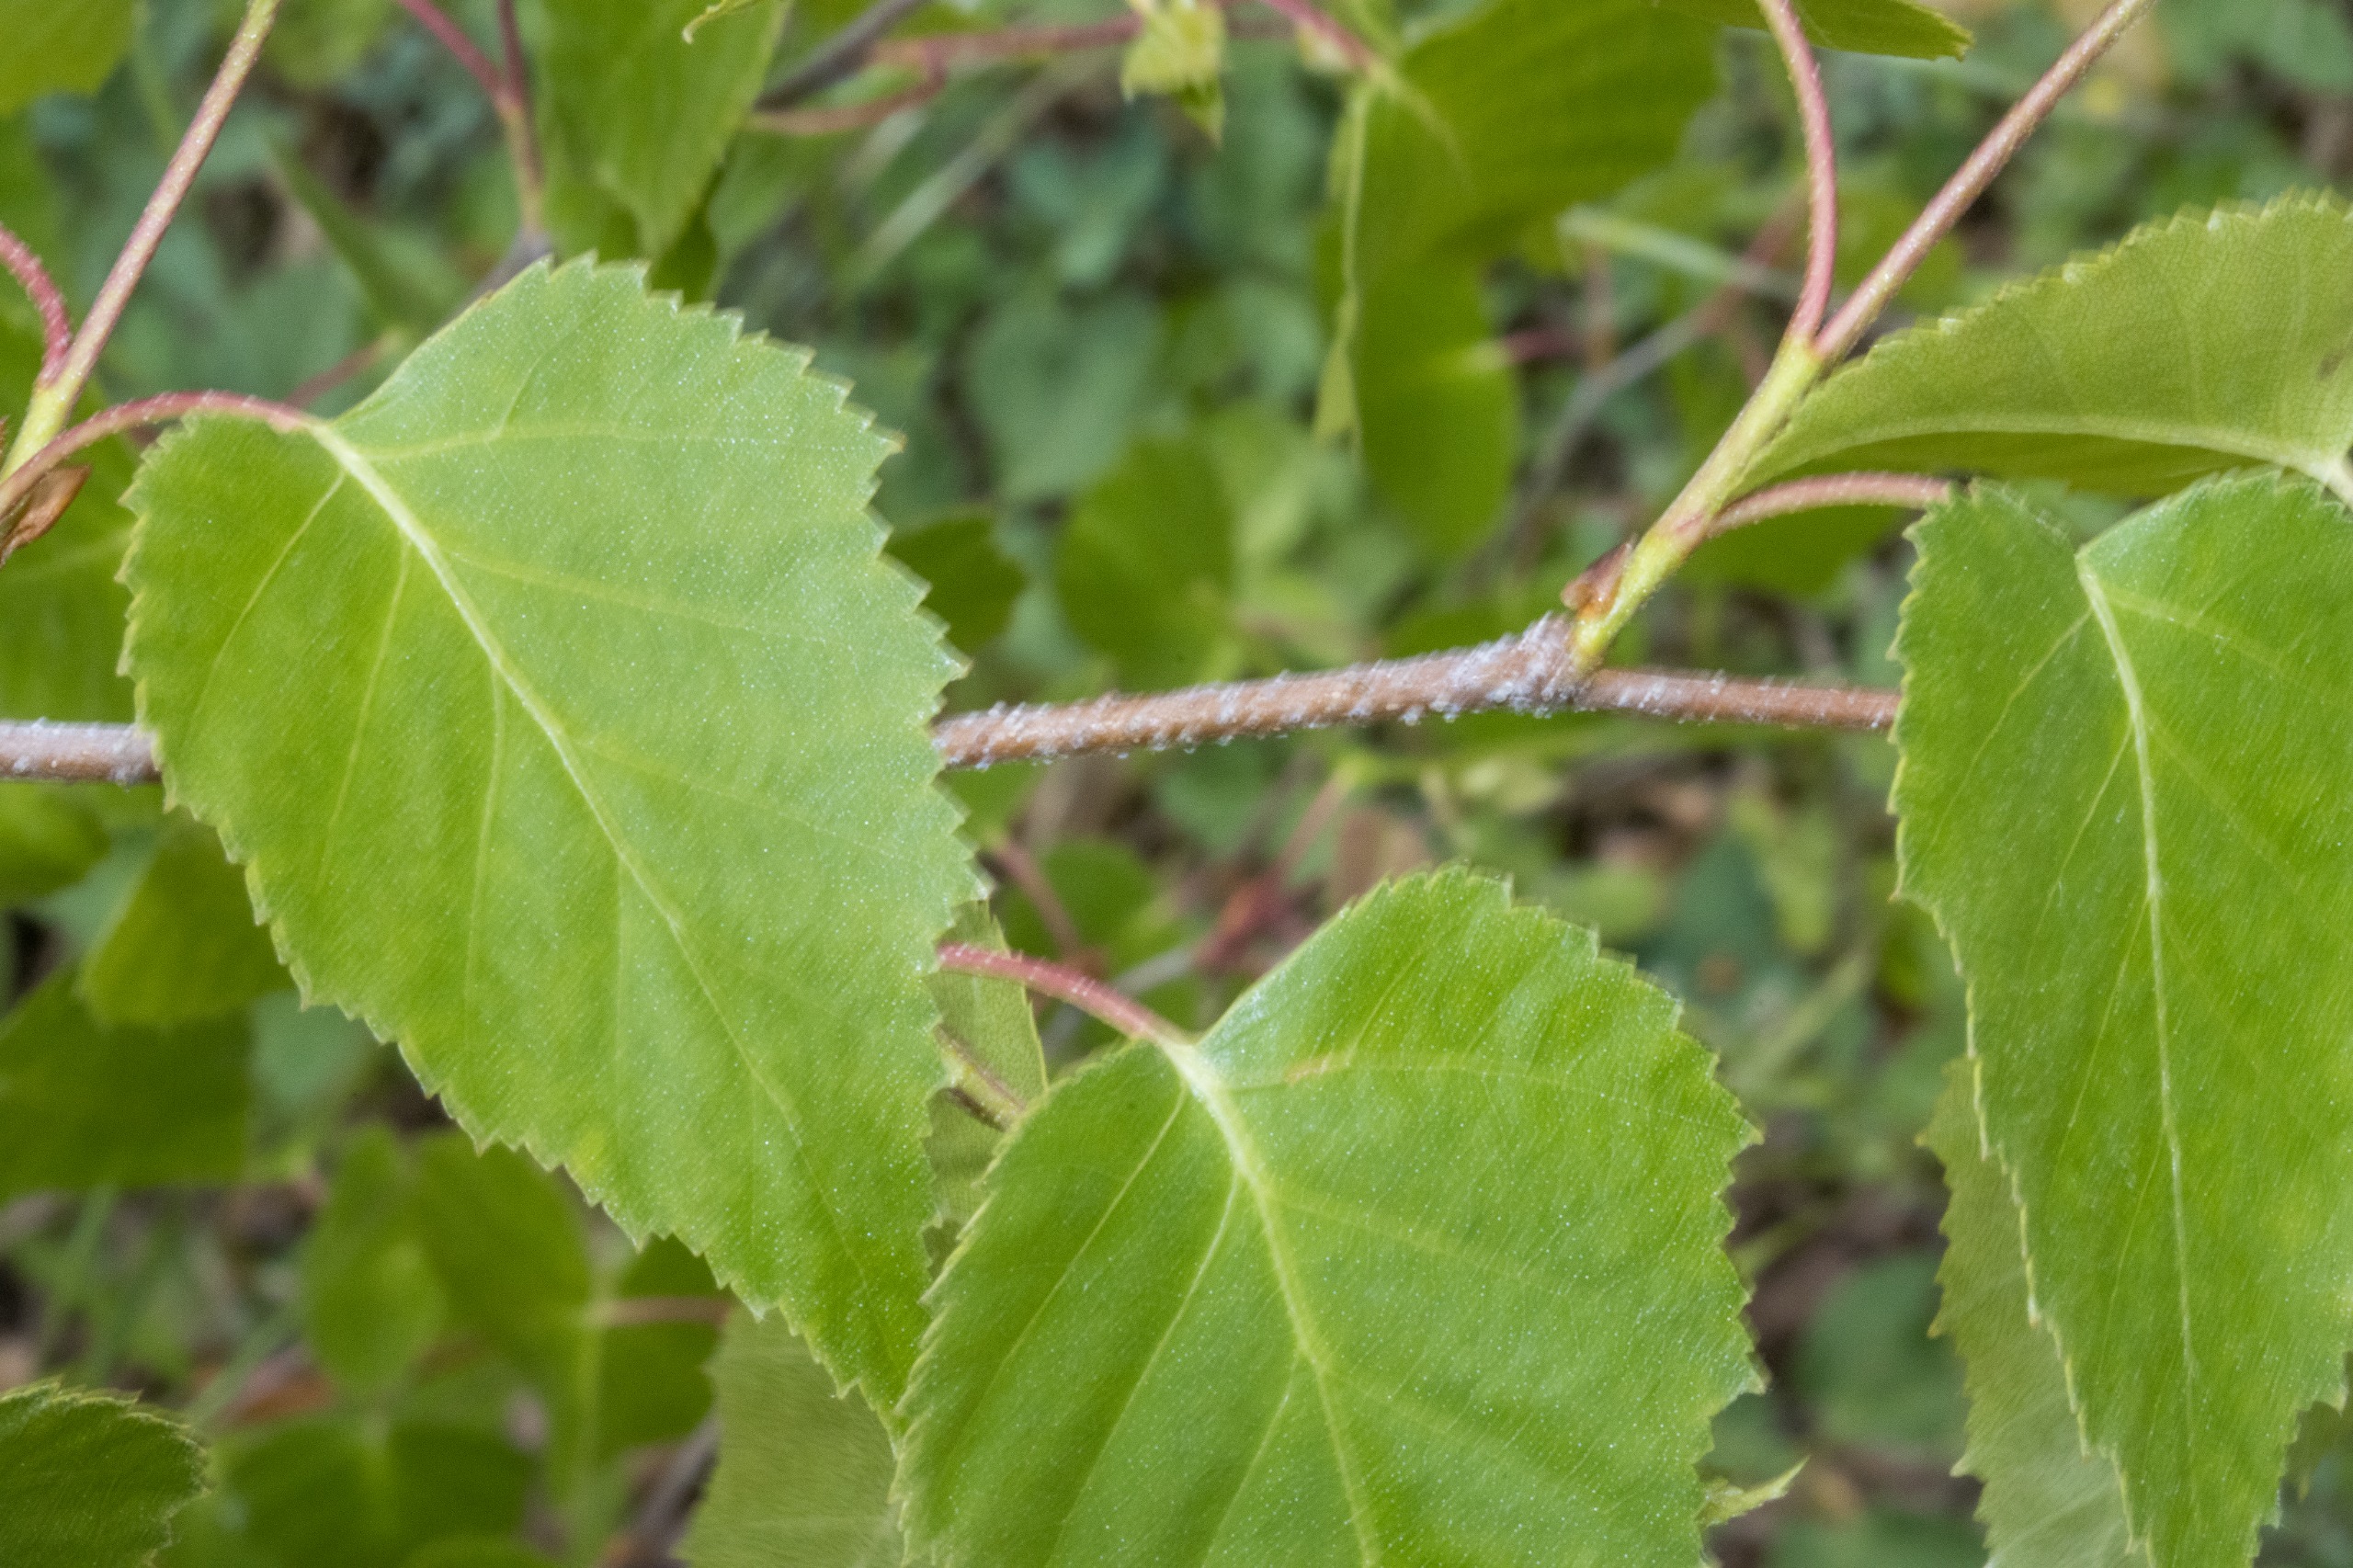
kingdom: Plantae
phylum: Tracheophyta
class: Magnoliopsida
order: Fagales
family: Betulaceae
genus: Betula
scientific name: Betula pendula
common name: Vorte-birk
